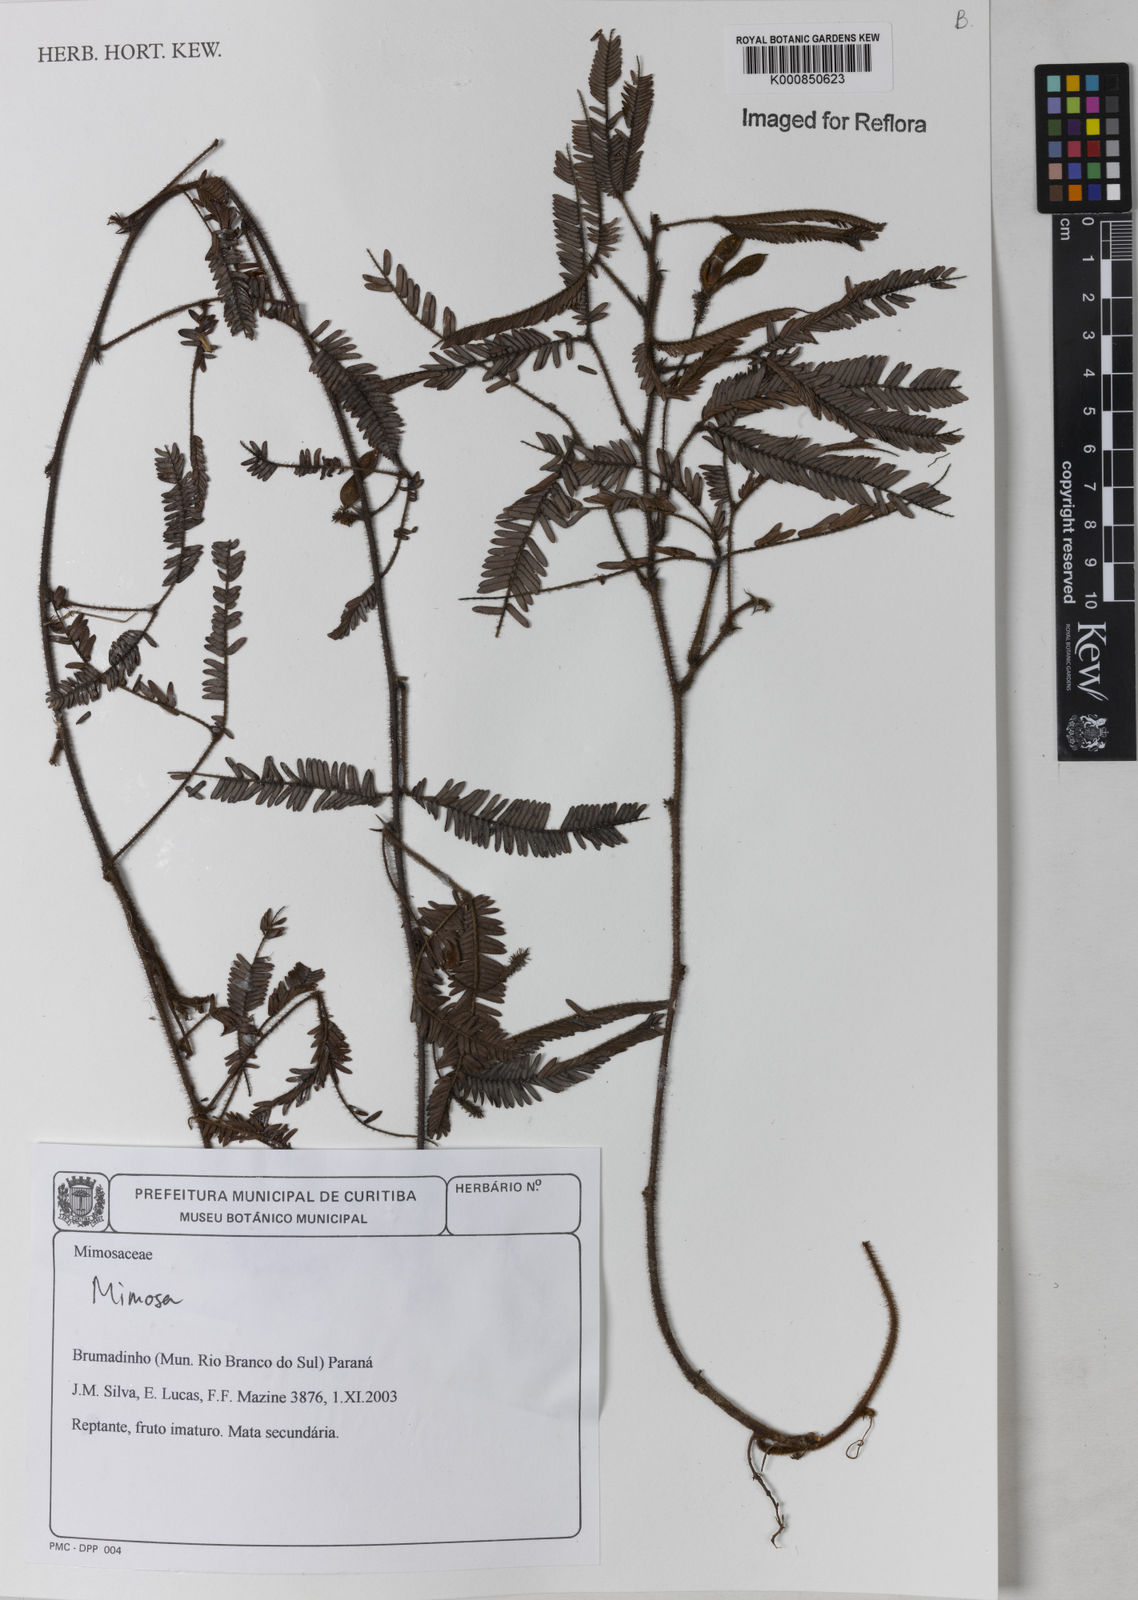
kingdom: Plantae
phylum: Tracheophyta
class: Magnoliopsida
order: Fabales
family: Fabaceae
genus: Mimosa
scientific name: Mimosa
